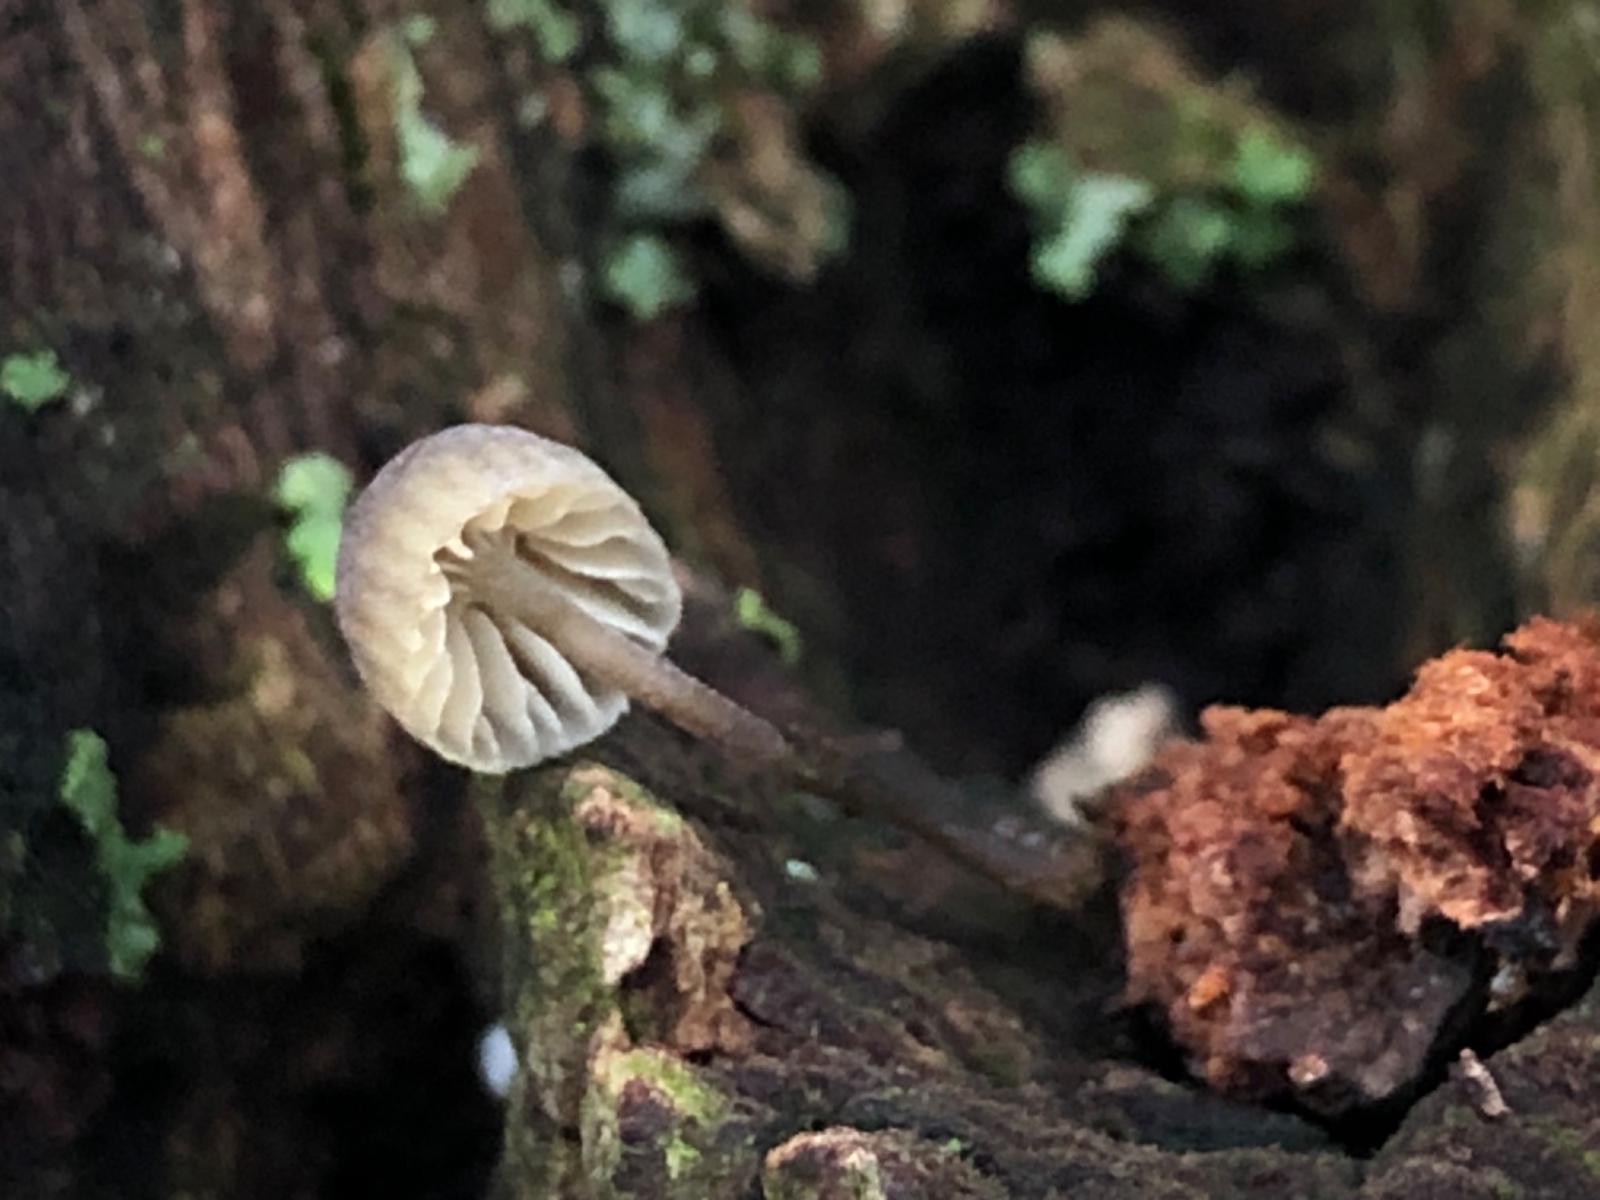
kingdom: Fungi
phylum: Basidiomycota
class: Agaricomycetes
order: Agaricales
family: Mycenaceae
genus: Mycena
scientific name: Mycena
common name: huesvamp
